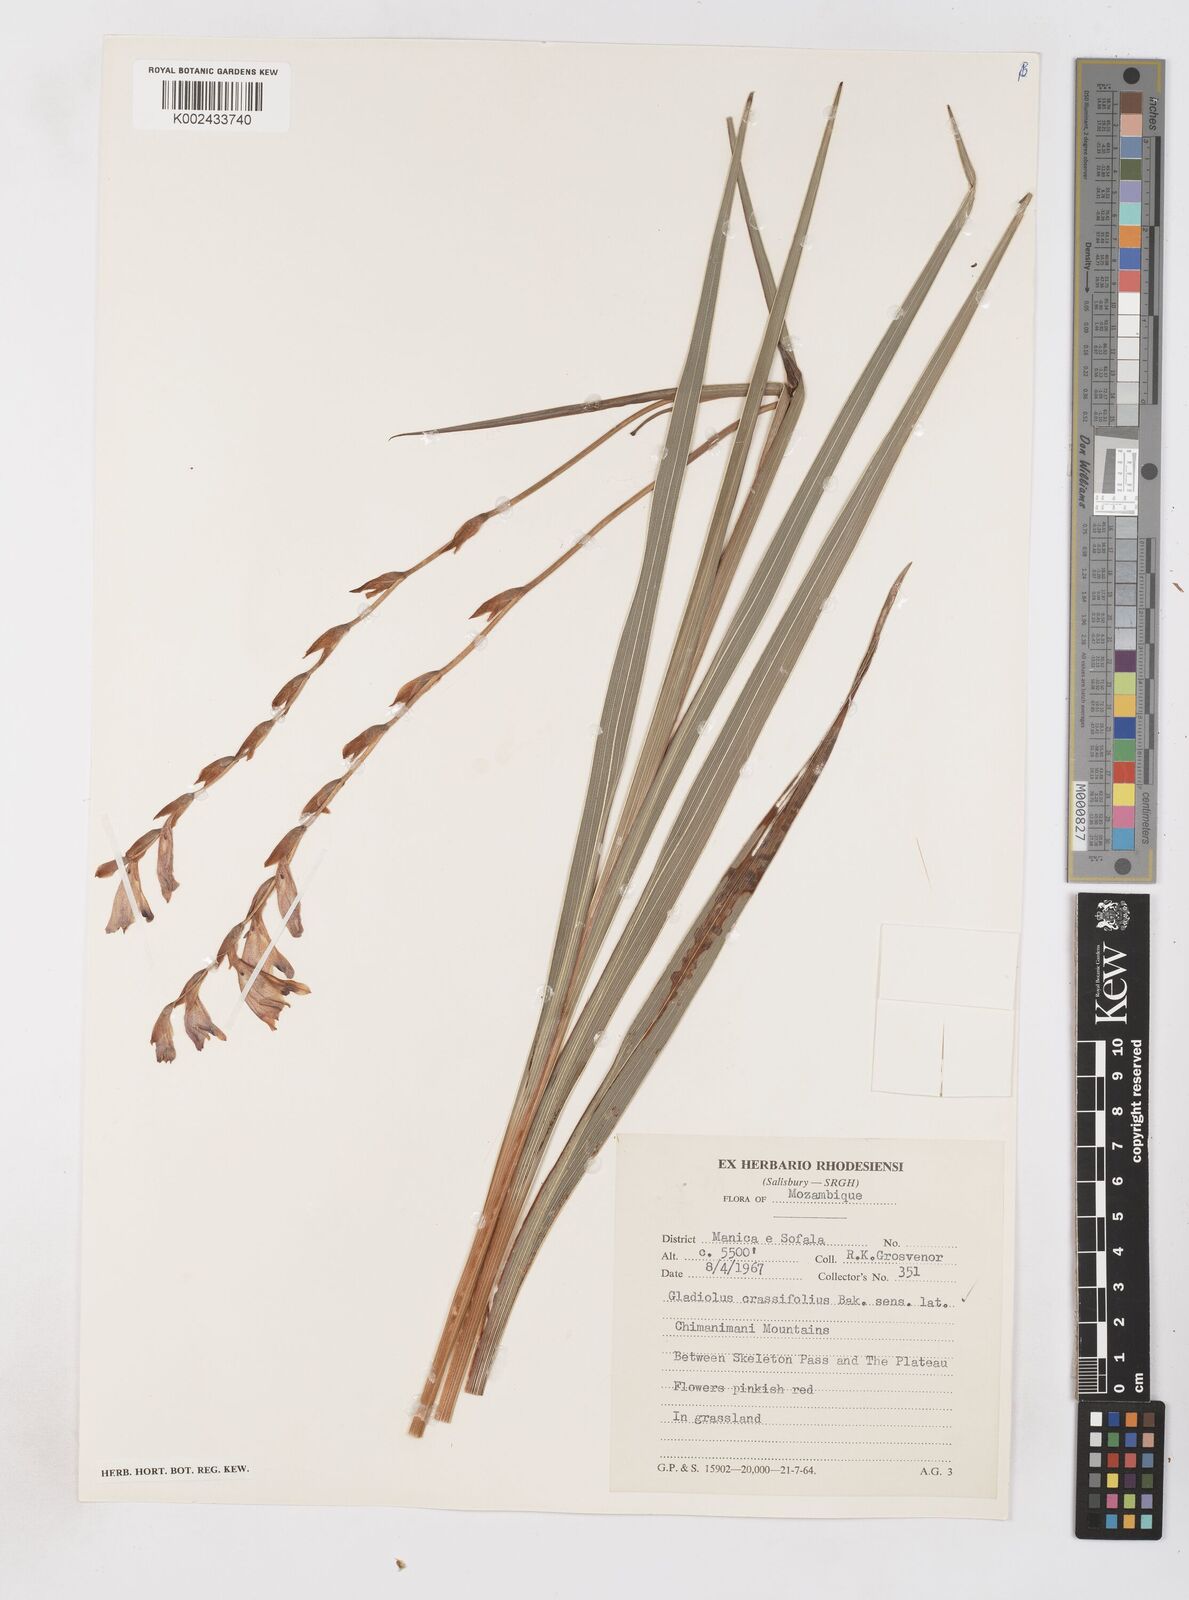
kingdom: Plantae
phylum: Tracheophyta
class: Liliopsida
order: Asparagales
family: Iridaceae
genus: Gladiolus
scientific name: Gladiolus crassifolius
